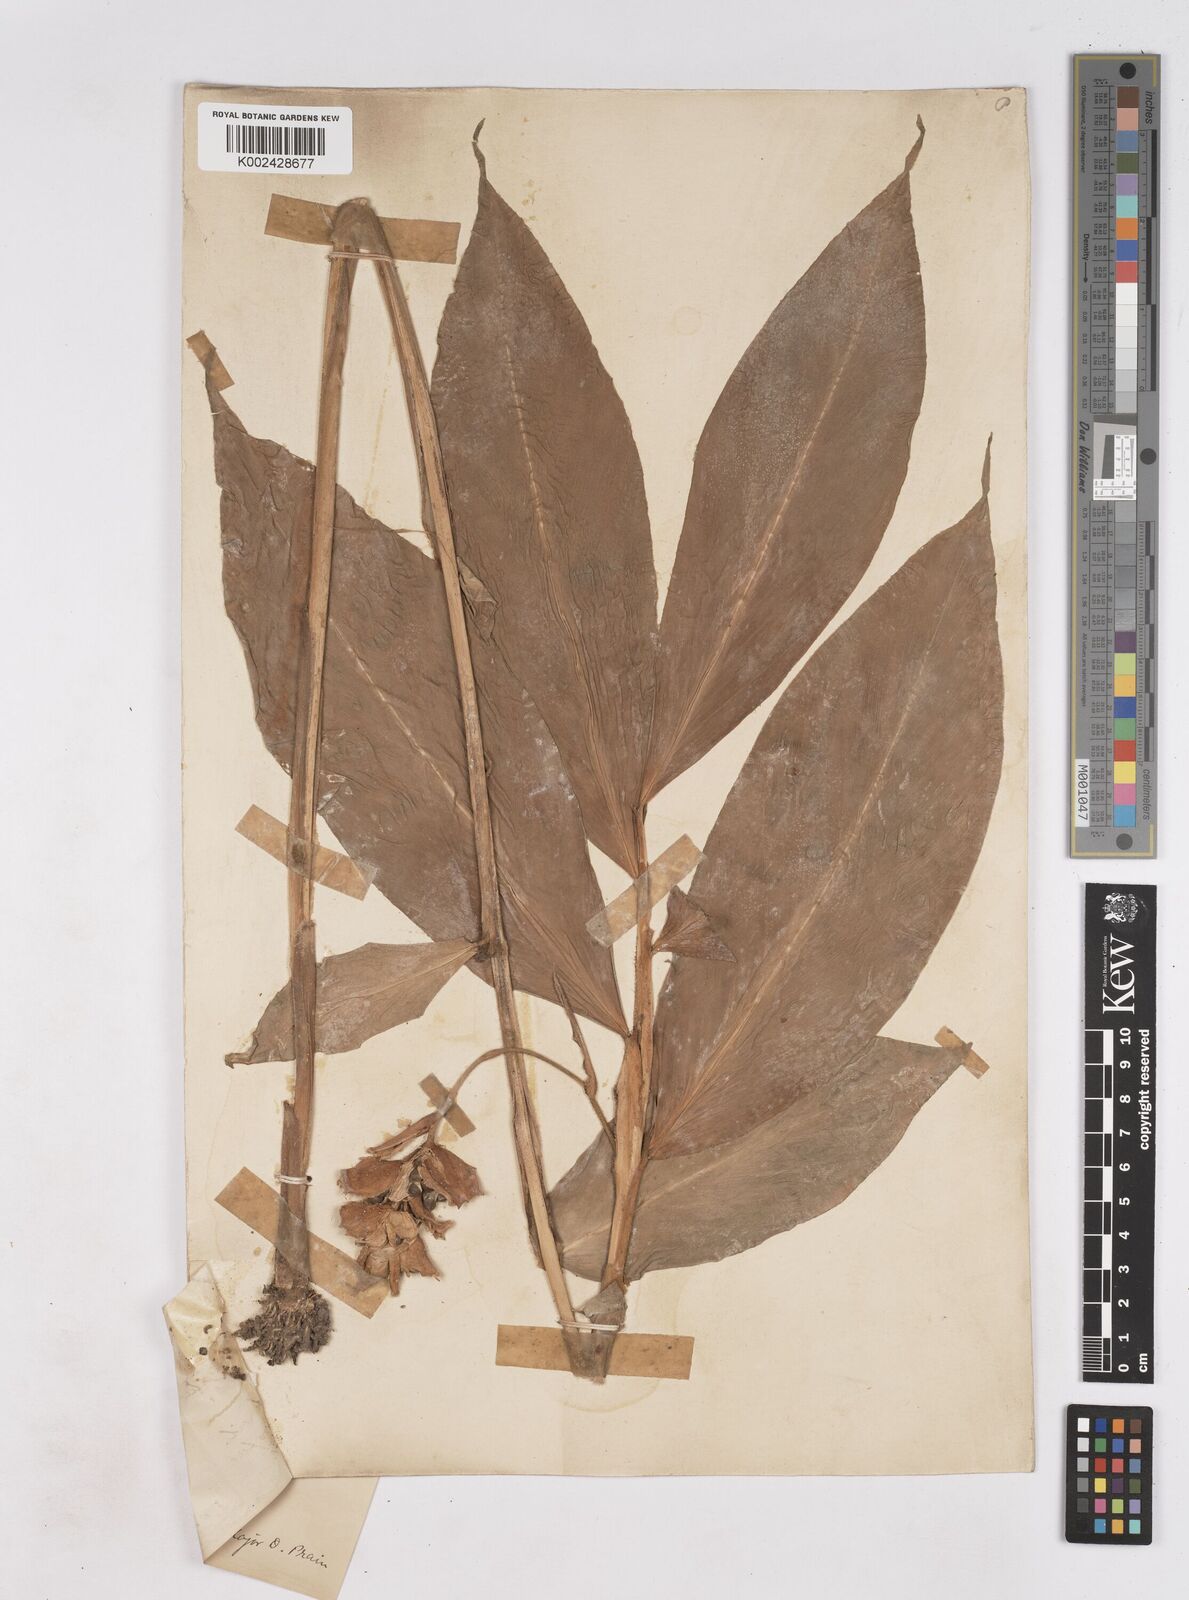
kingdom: Plantae
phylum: Tracheophyta
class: Liliopsida
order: Zingiberales
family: Zingiberaceae
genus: Zingiber
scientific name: Zingiber clarkei
